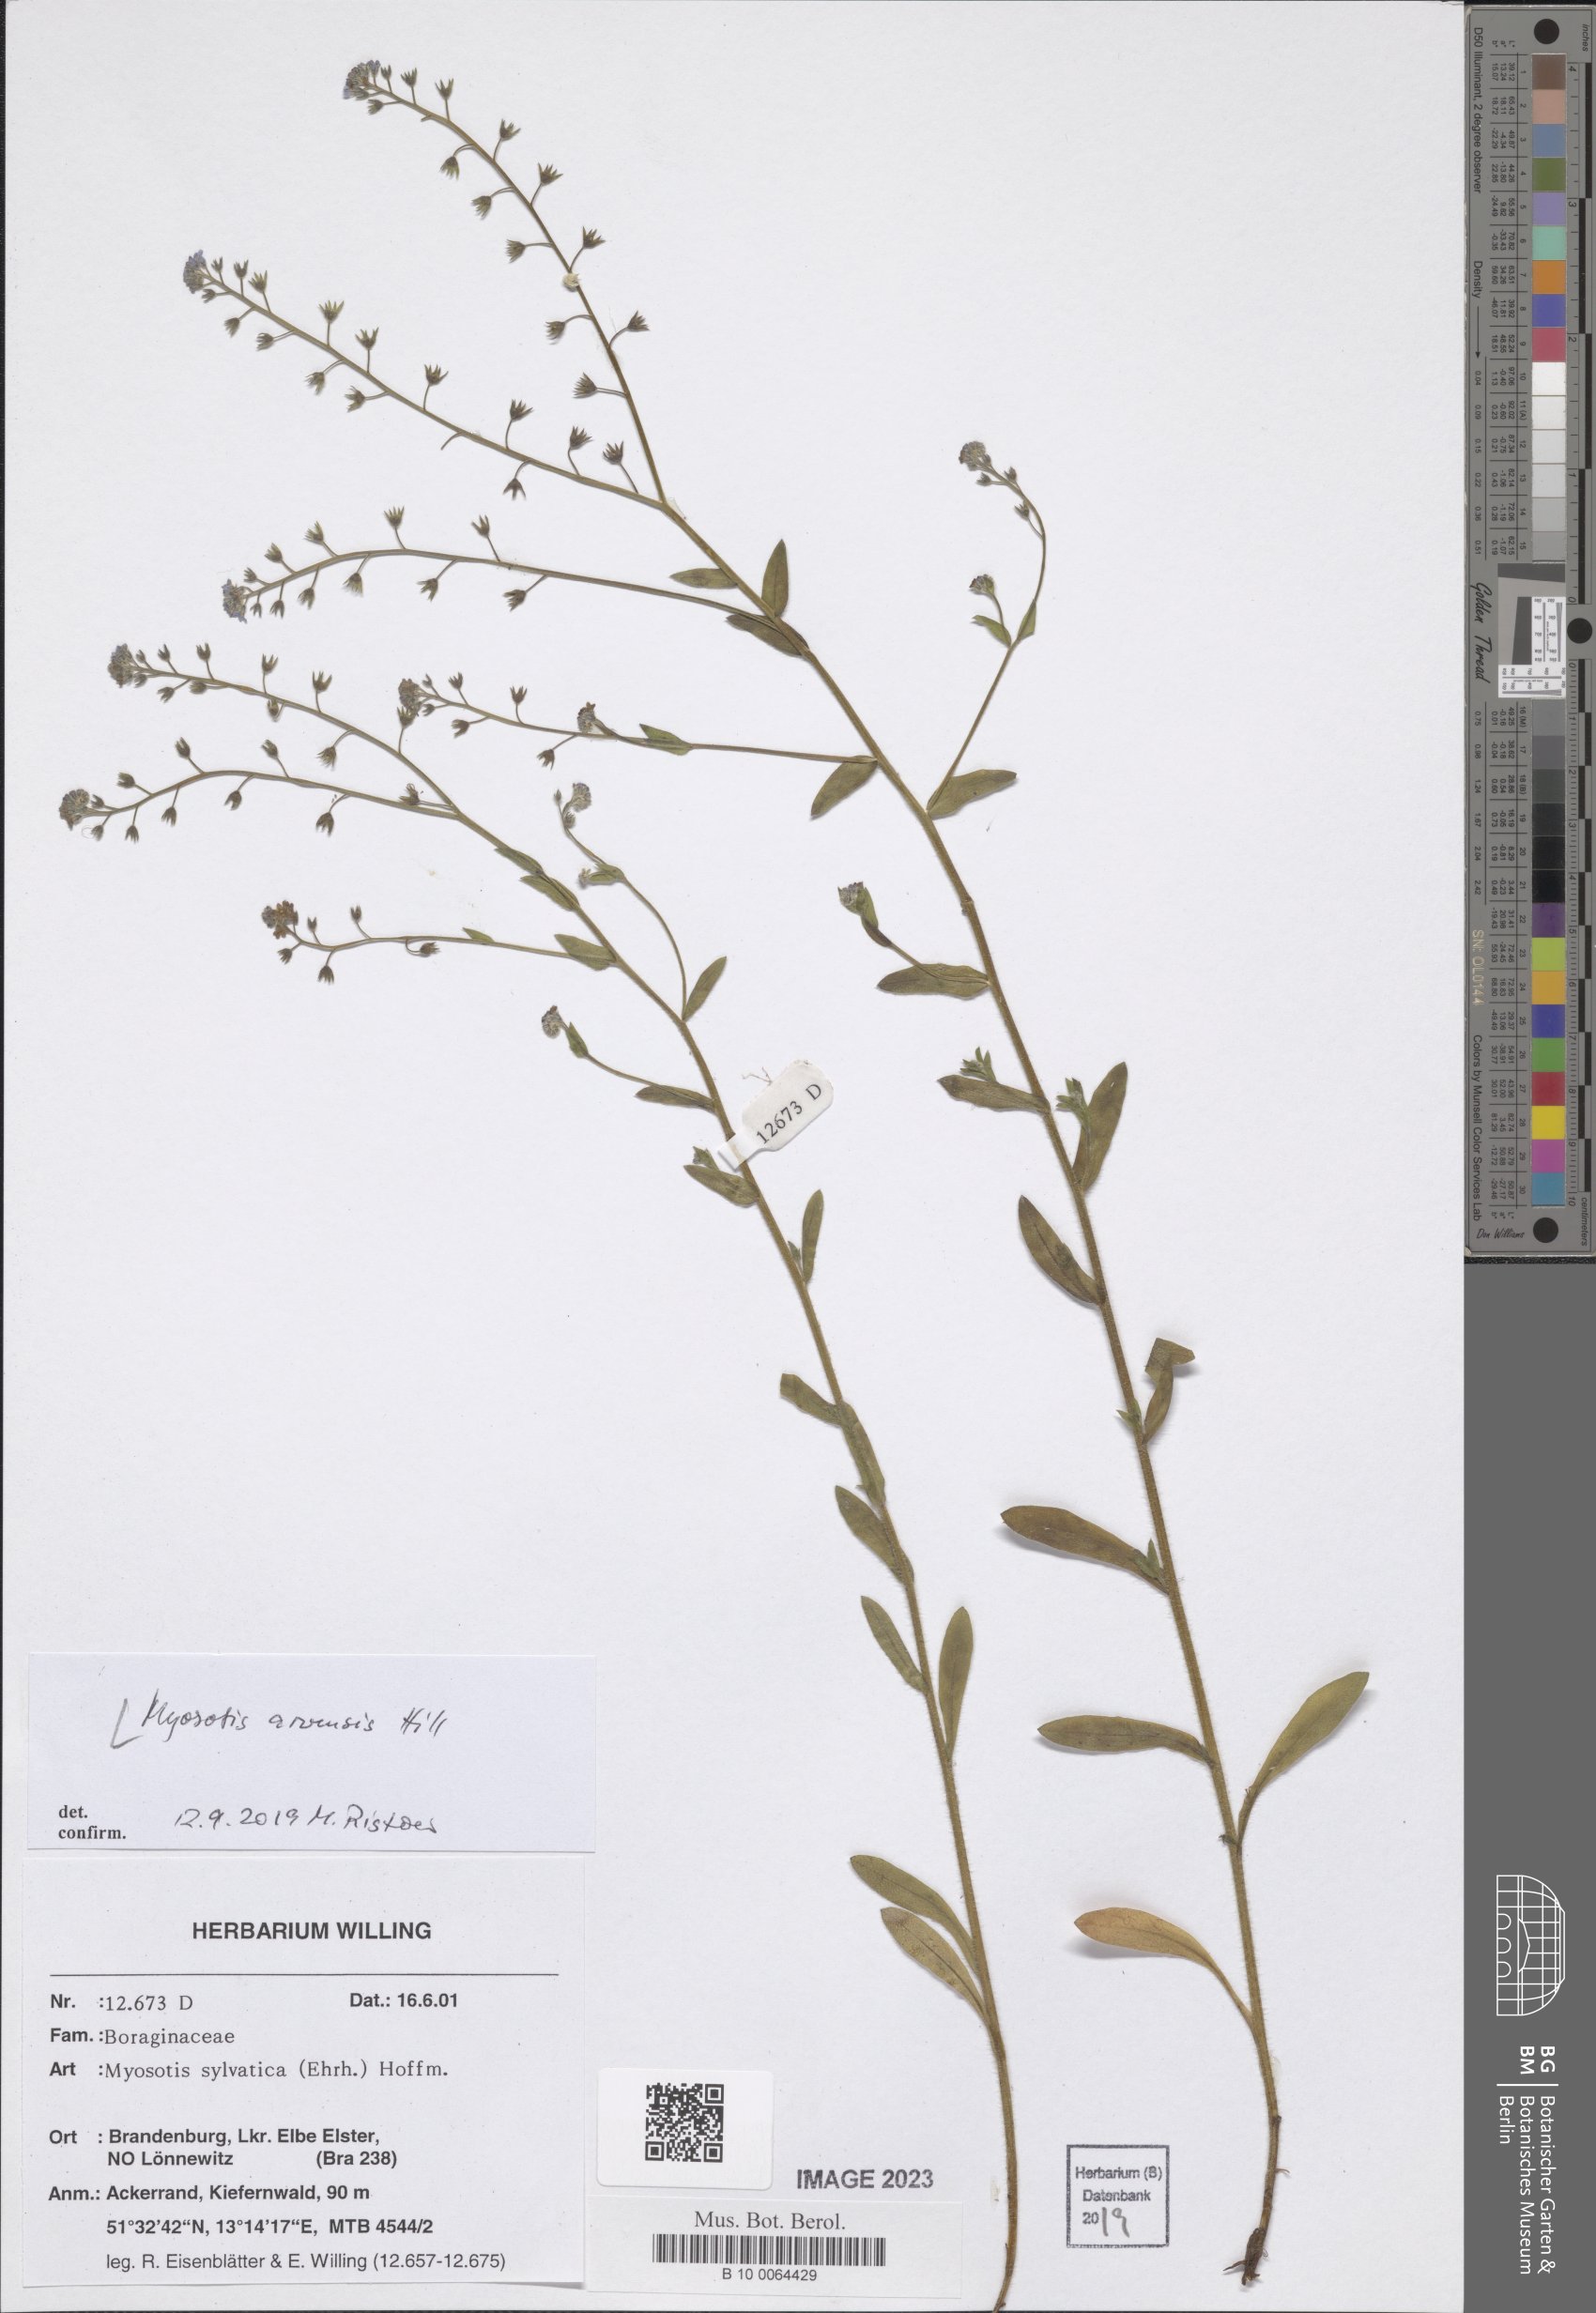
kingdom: Plantae
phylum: Tracheophyta
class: Magnoliopsida
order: Boraginales
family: Boraginaceae
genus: Myosotis
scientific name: Myosotis arvensis
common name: Field forget-me-not
